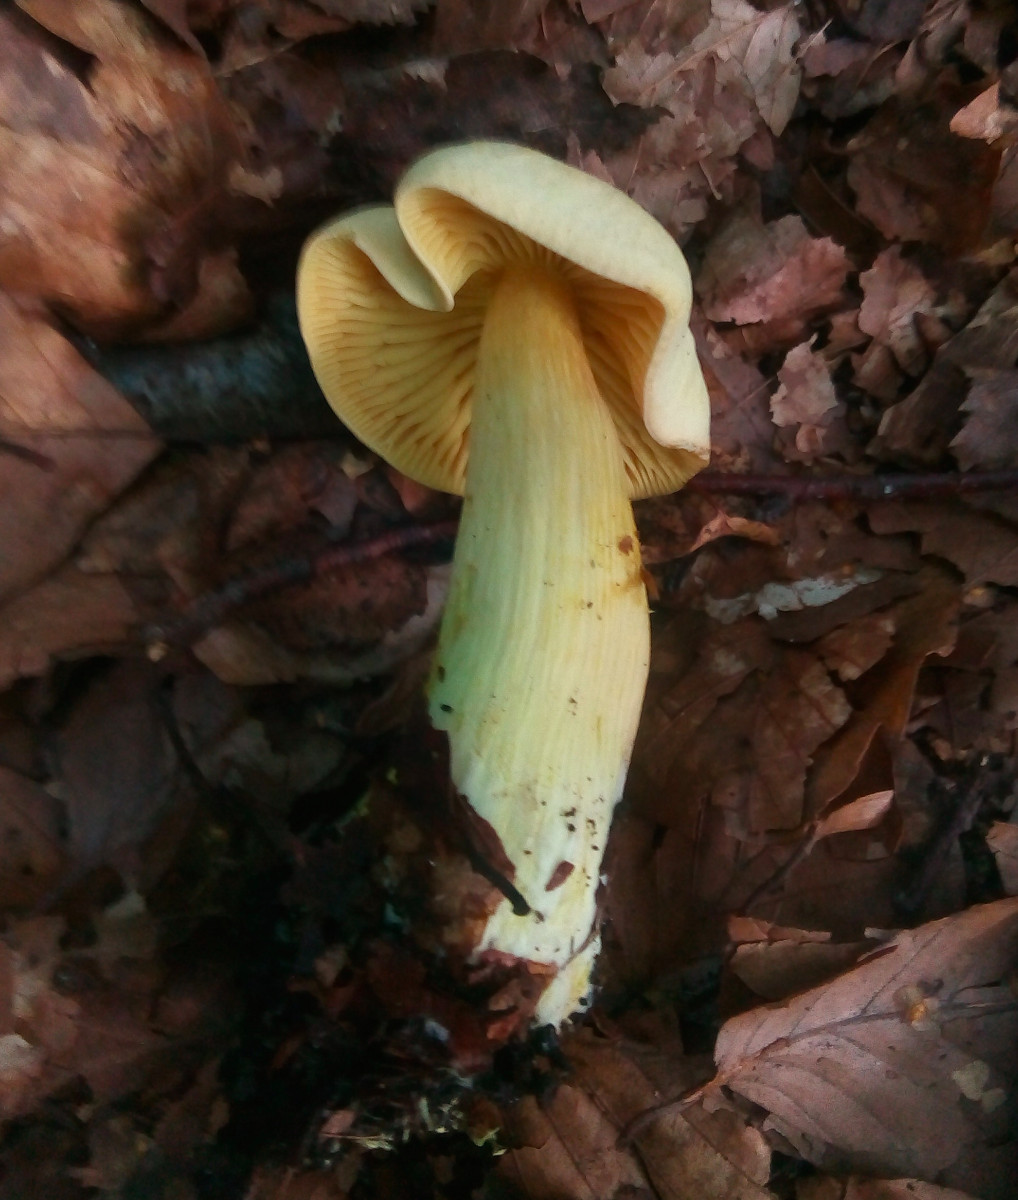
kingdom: Fungi
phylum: Basidiomycota
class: Agaricomycetes
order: Agaricales
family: Tricholomataceae
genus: Tricholoma
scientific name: Tricholoma sulphureum
